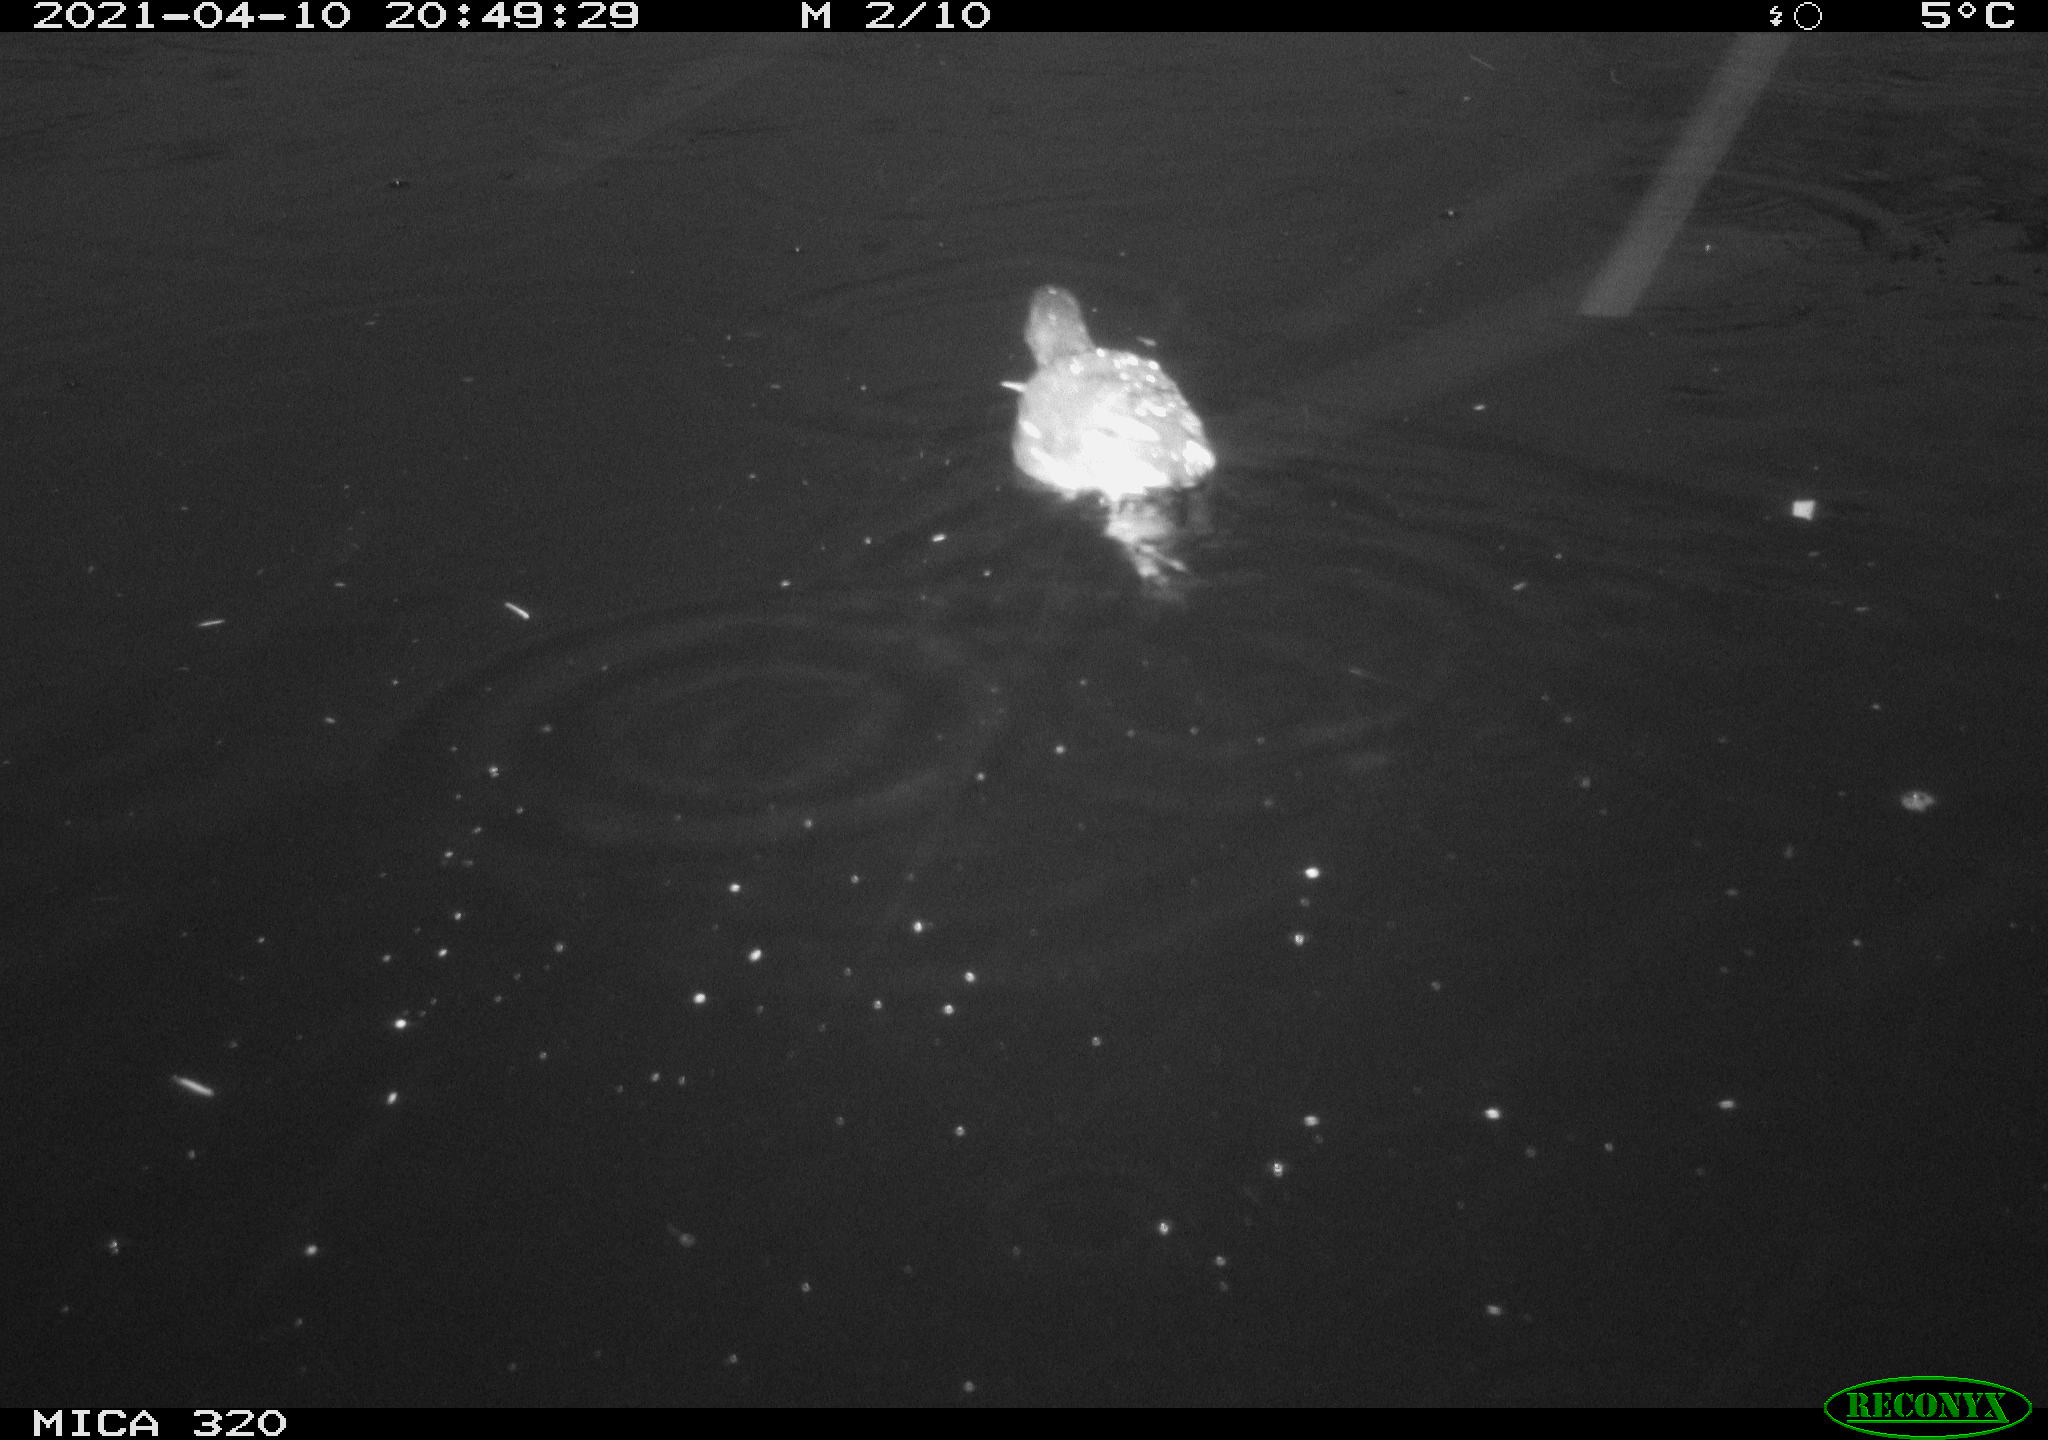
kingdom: Animalia
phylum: Chordata
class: Aves
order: Gruiformes
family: Rallidae
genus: Gallinula
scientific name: Gallinula chloropus
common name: Common moorhen
